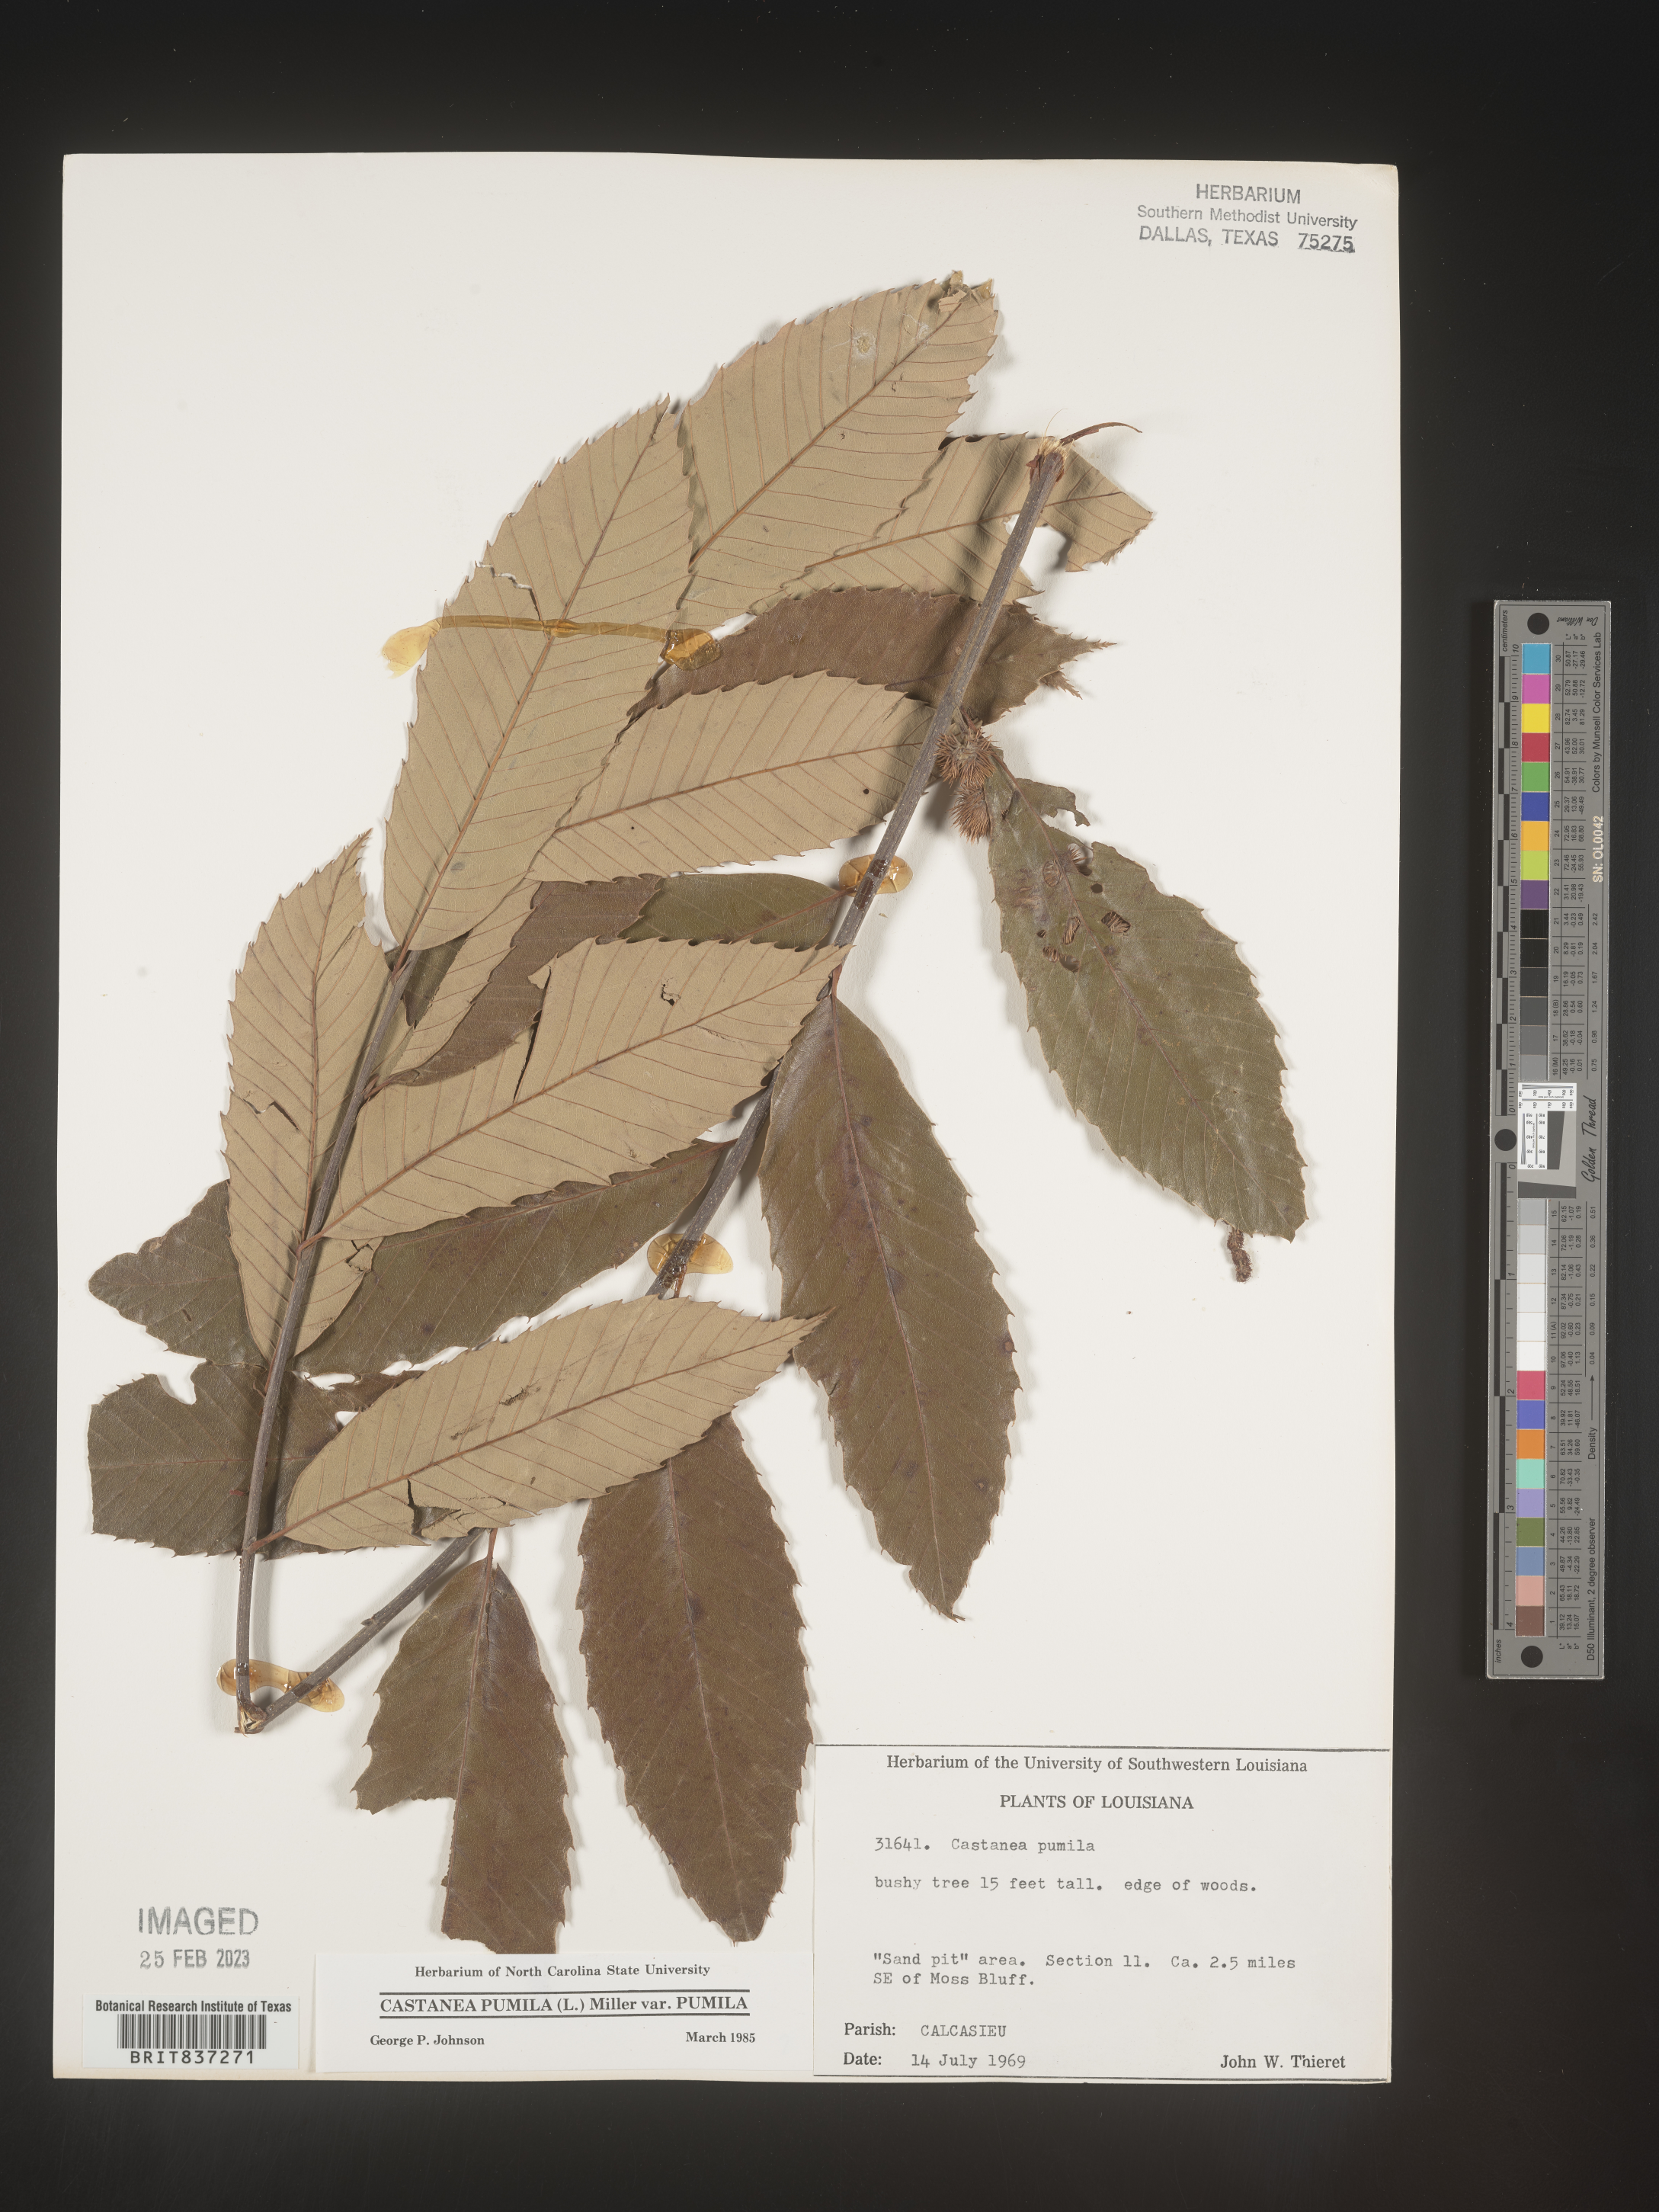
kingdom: Plantae
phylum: Tracheophyta
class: Magnoliopsida
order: Fagales
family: Fagaceae
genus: Castanea
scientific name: Castanea pumila
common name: Chinkapin
